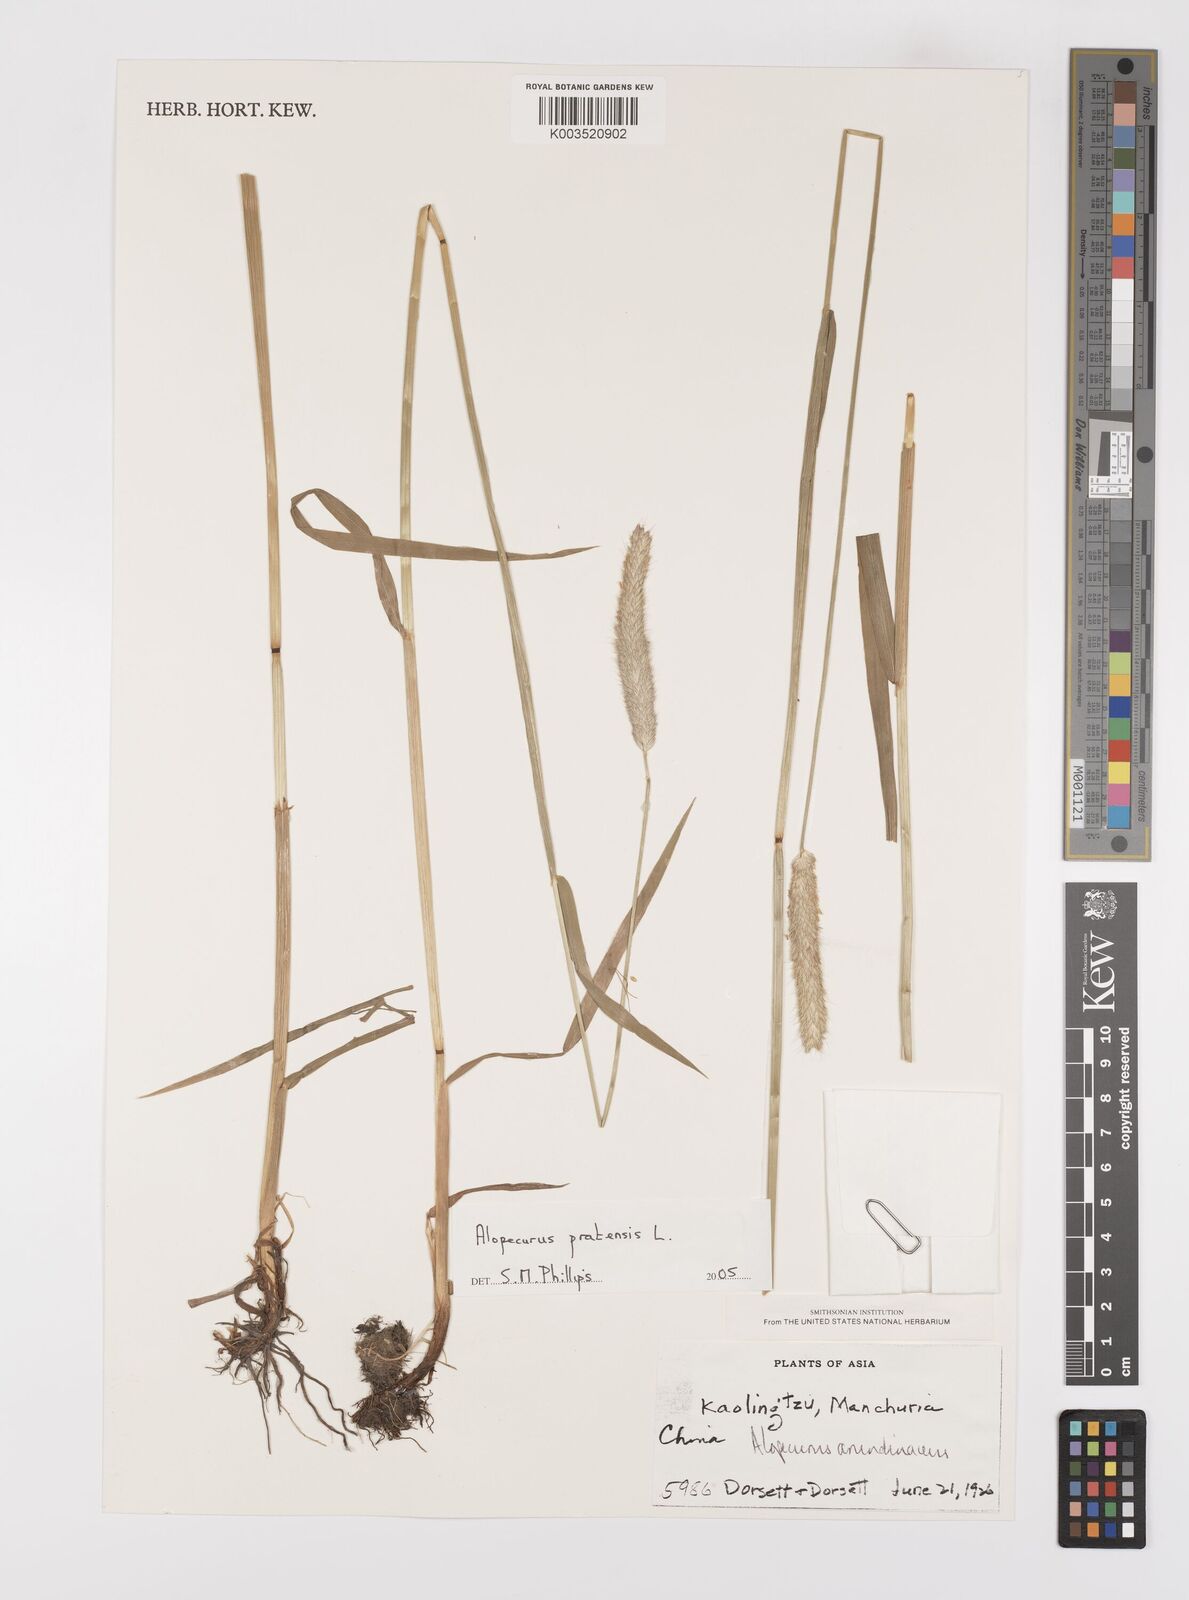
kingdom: Plantae
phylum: Tracheophyta
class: Liliopsida
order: Poales
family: Poaceae
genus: Alopecurus
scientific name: Alopecurus pratensis
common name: Meadow foxtail
